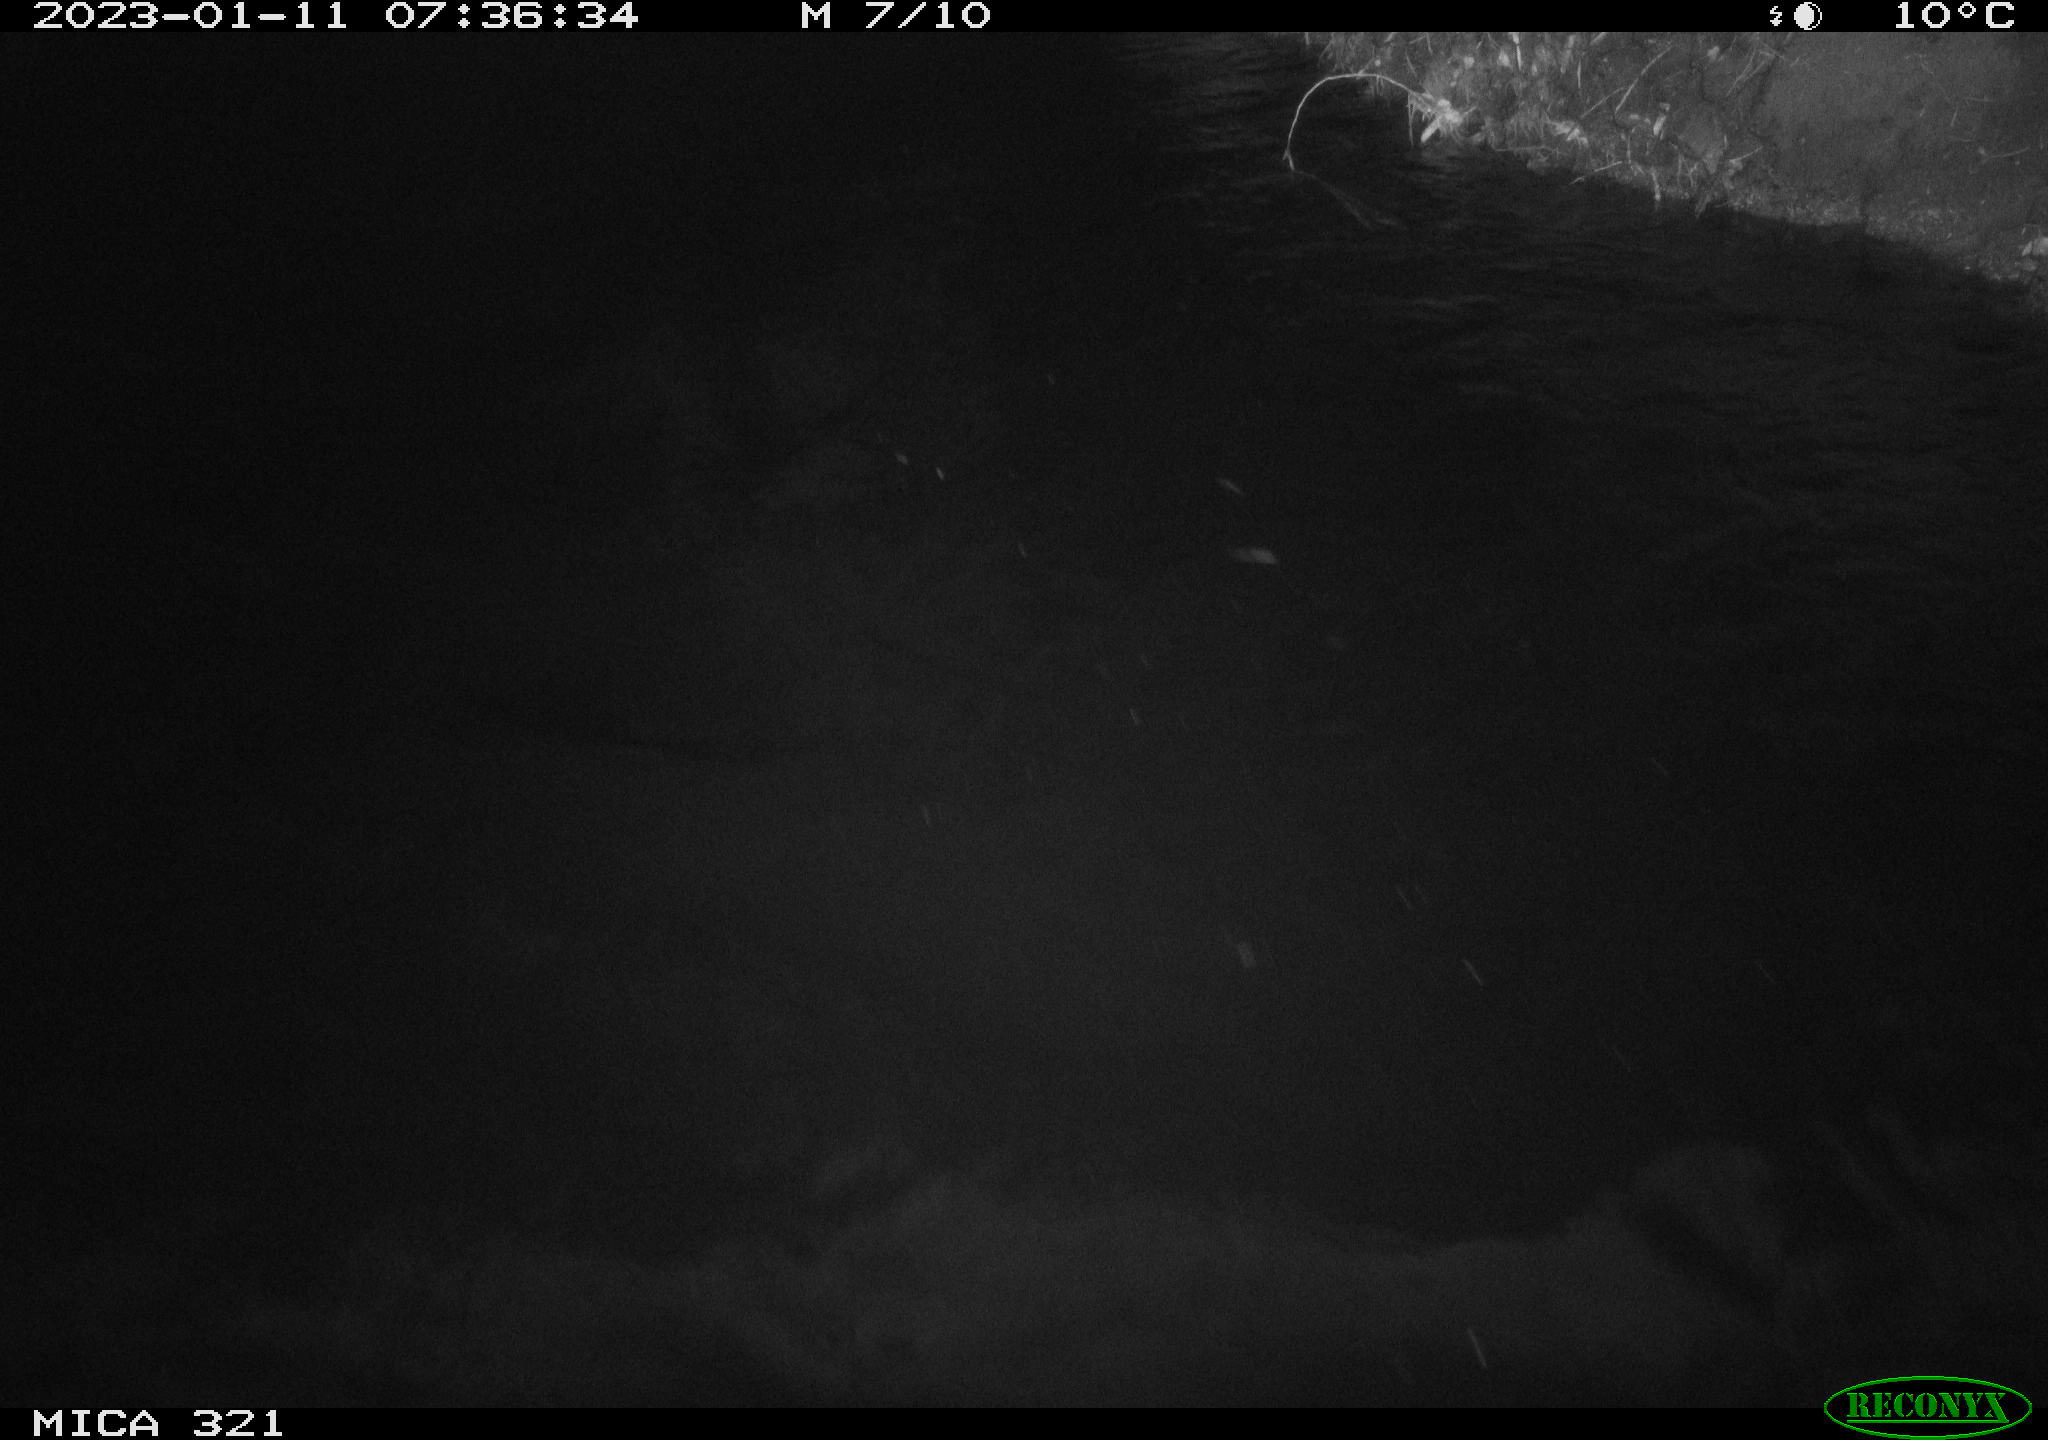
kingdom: Animalia
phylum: Chordata
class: Aves
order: Anseriformes
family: Anatidae
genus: Anas
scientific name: Anas
